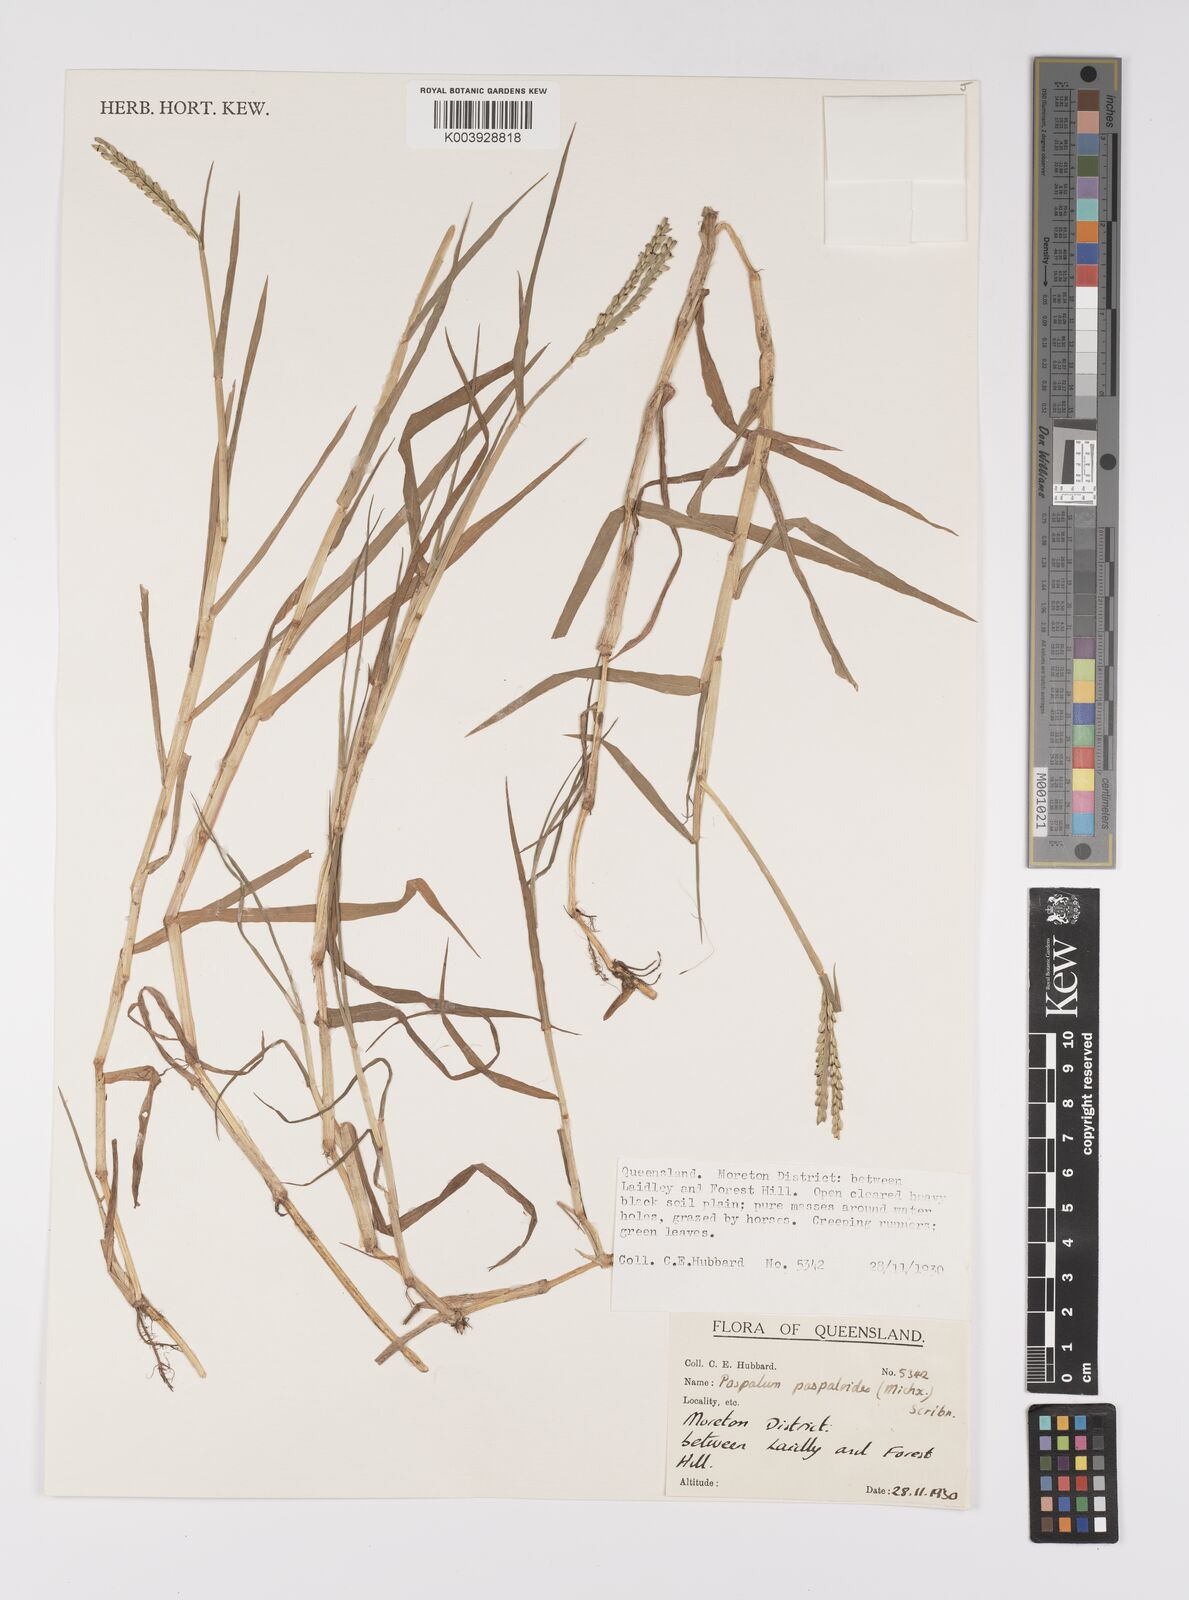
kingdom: Plantae
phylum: Tracheophyta
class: Liliopsida
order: Poales
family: Poaceae
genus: Paspalum
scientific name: Paspalum distichum
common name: Knotgrass
